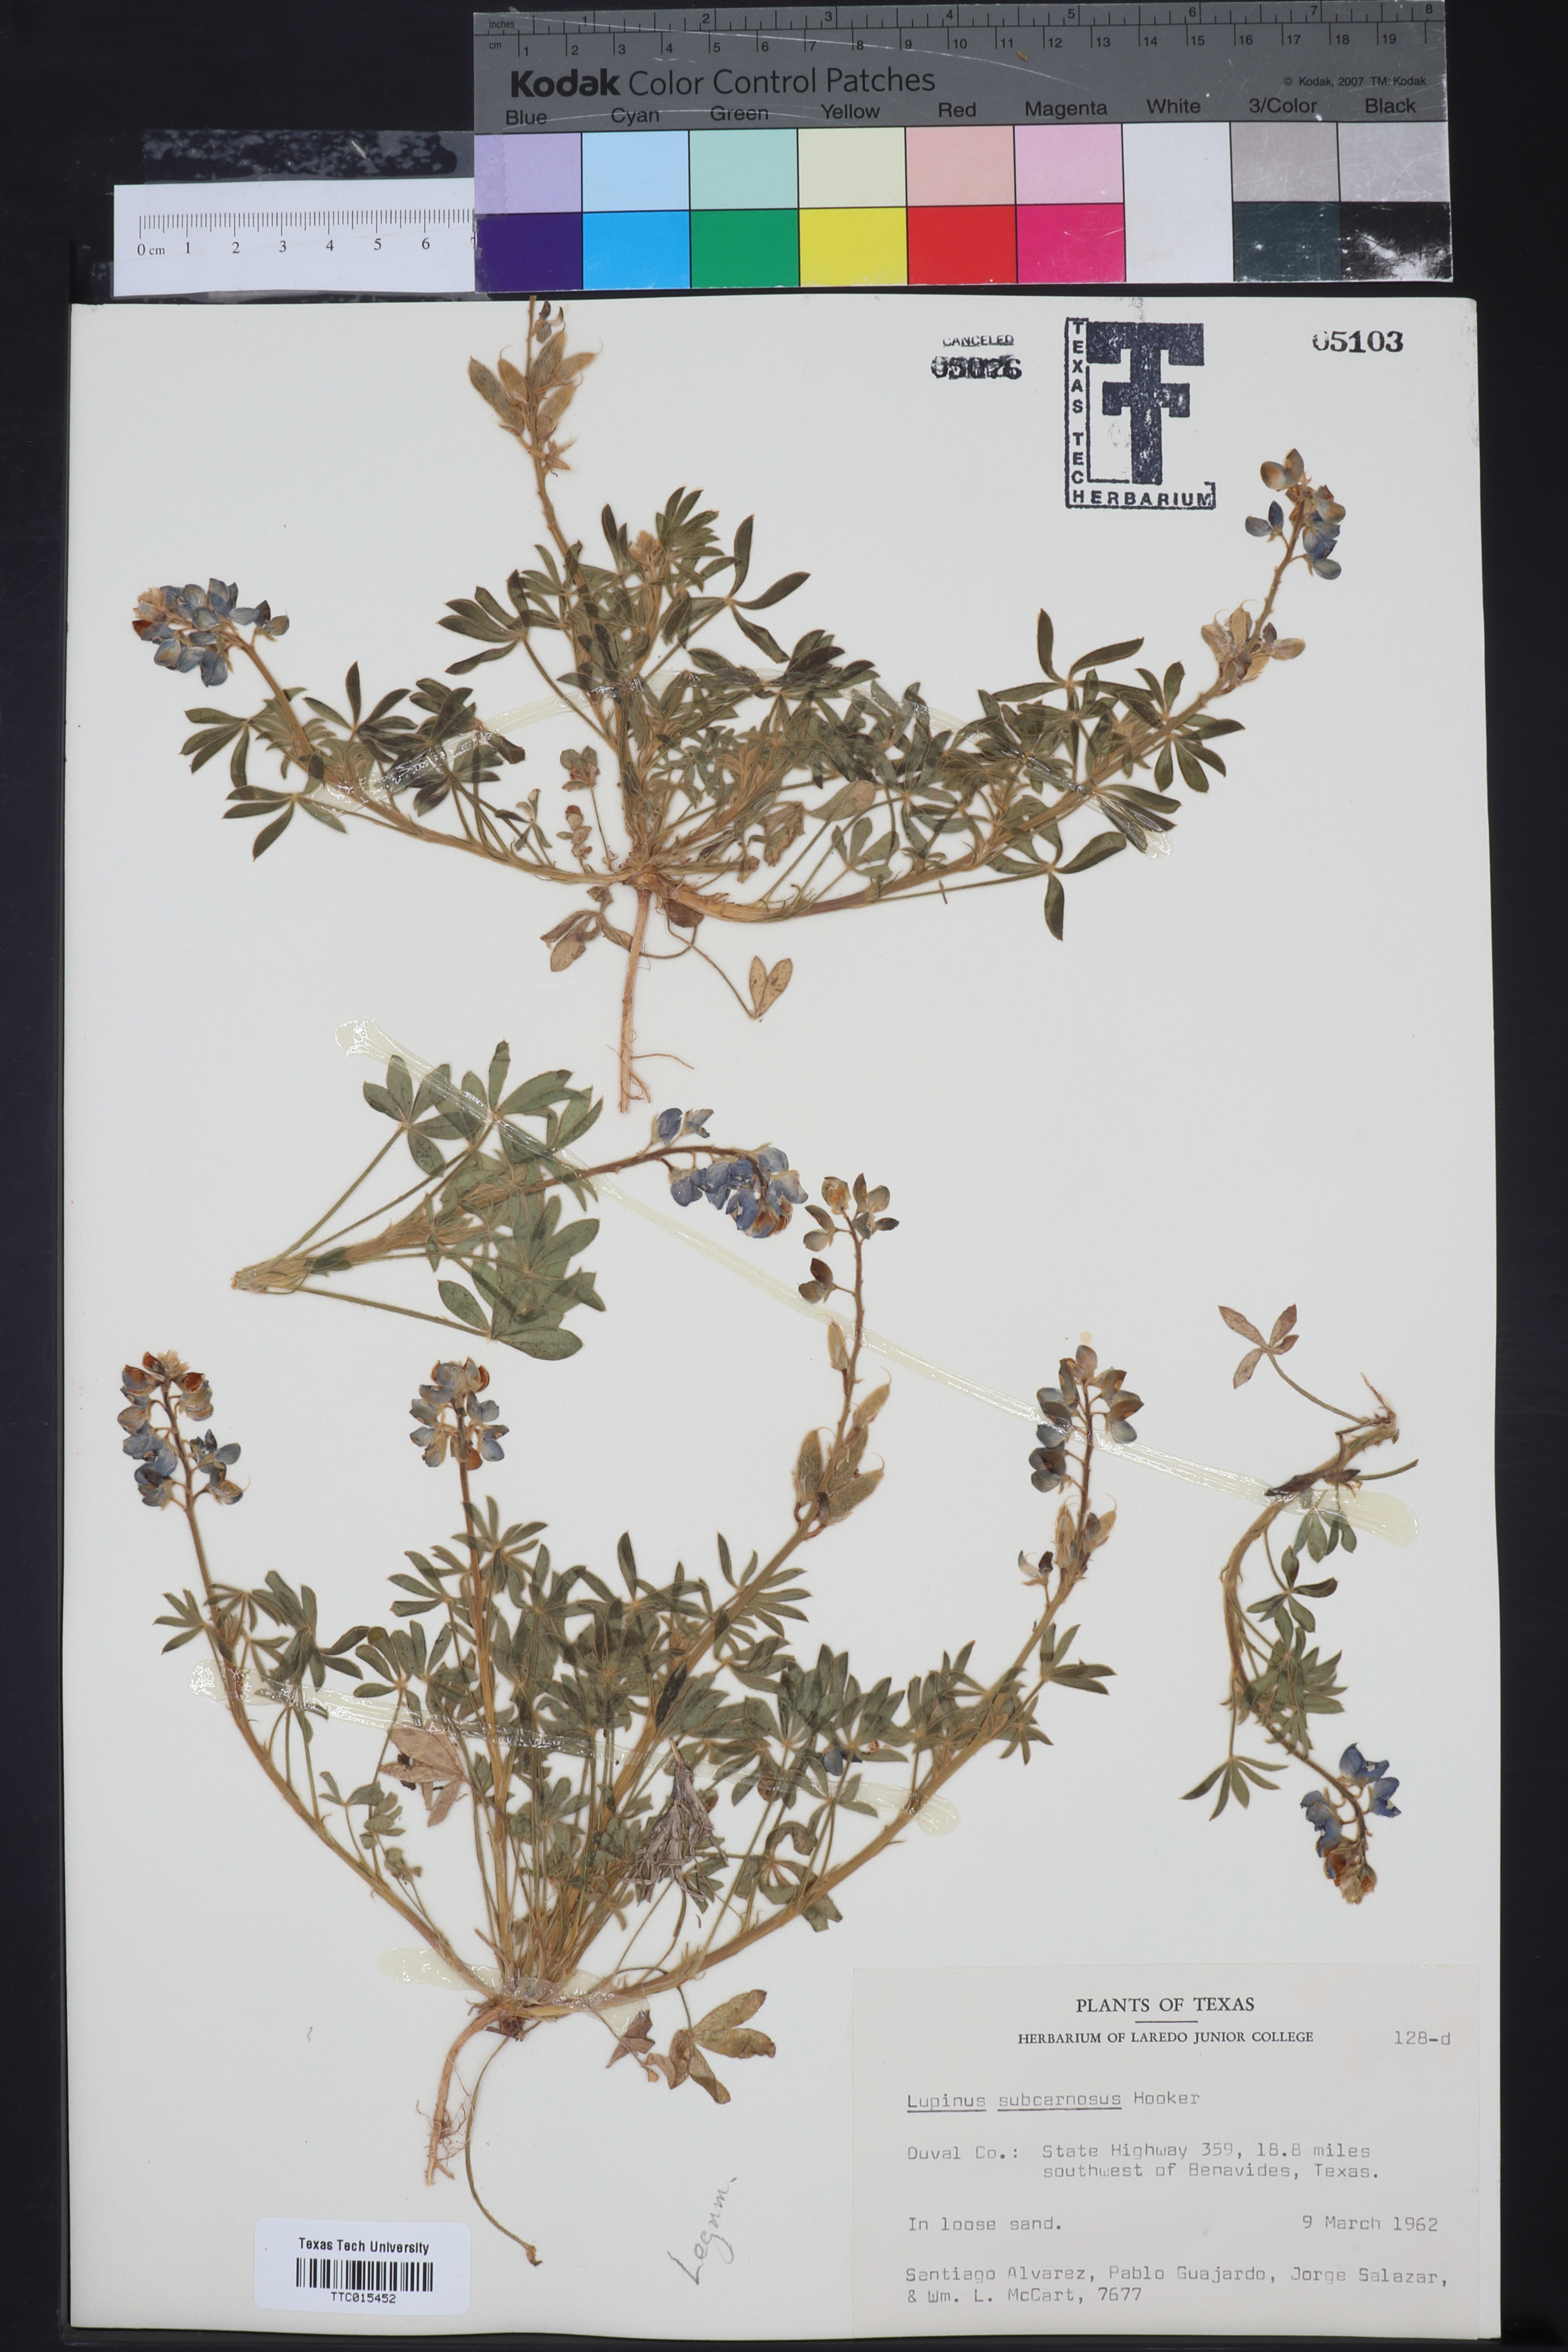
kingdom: Plantae
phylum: Tracheophyta
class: Magnoliopsida
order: Fabales
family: Fabaceae
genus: Lupinus
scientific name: Lupinus subcarnosus
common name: Texas bluebonnet
